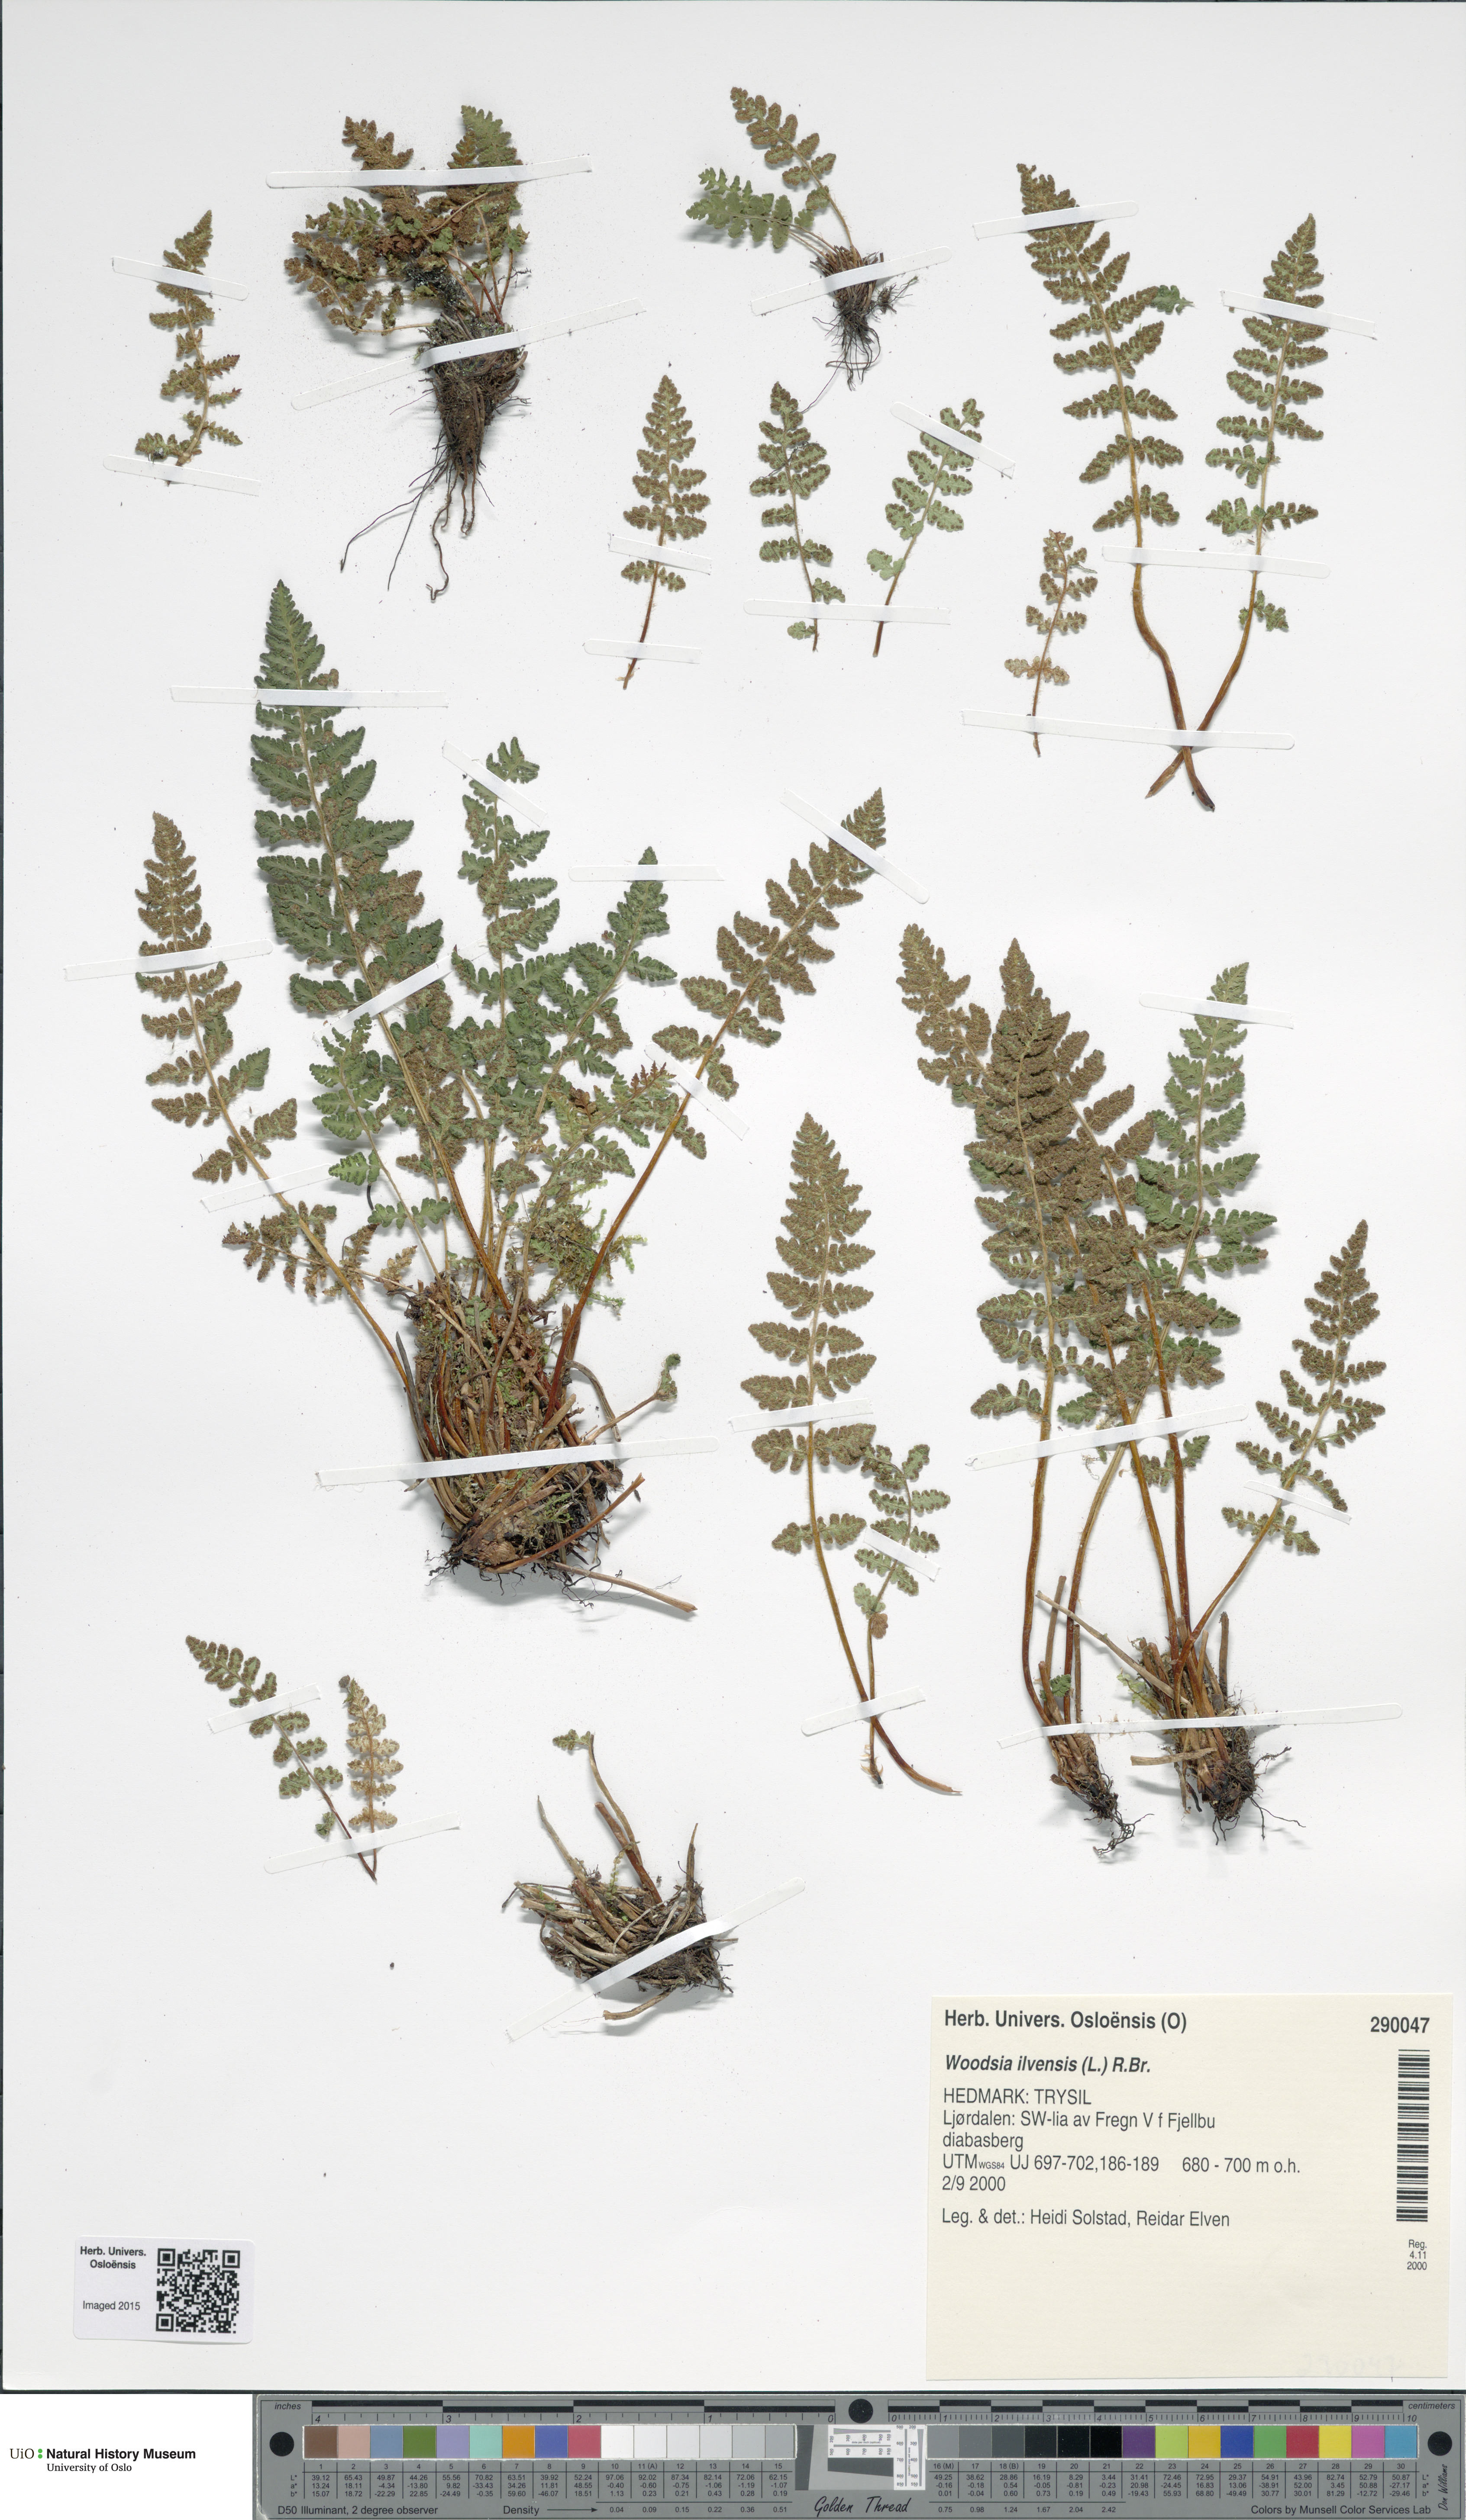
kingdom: Plantae
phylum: Tracheophyta
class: Polypodiopsida
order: Polypodiales
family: Woodsiaceae
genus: Woodsia
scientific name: Woodsia ilvensis
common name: Fragrant woodsia
